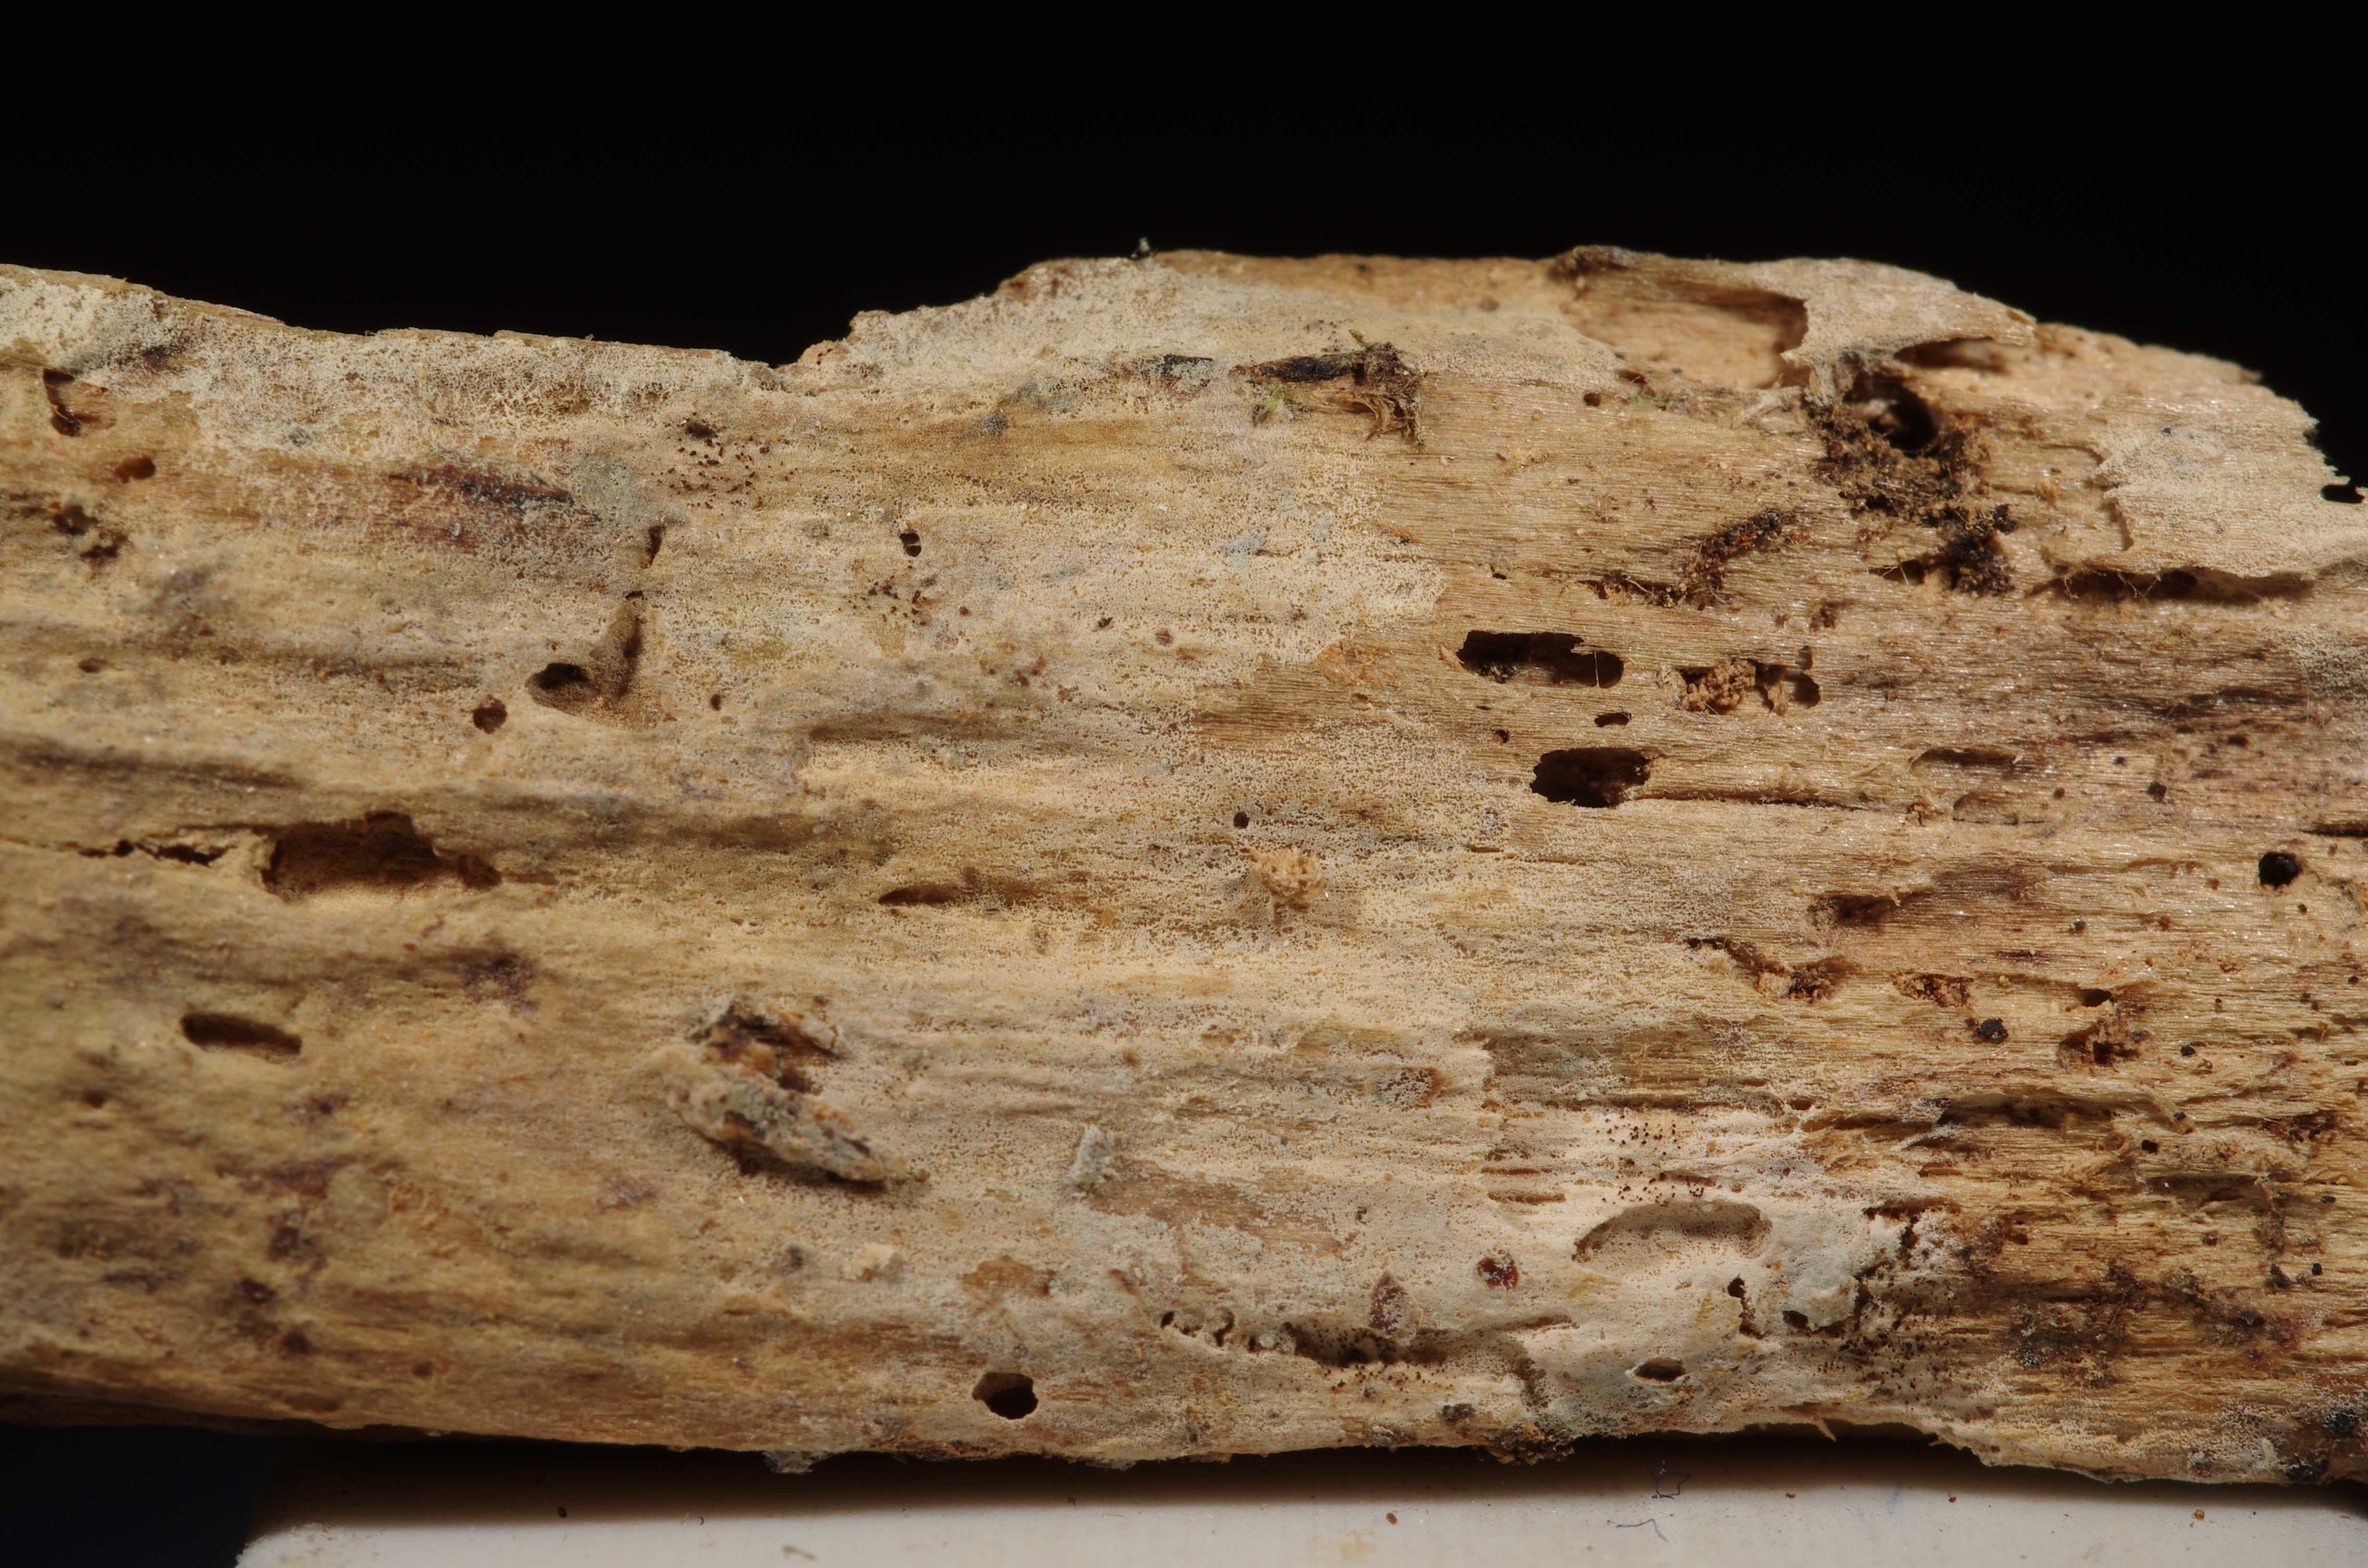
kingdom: Fungi
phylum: Basidiomycota
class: Agaricomycetes
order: Auriculariales
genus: Basidiodendron
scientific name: Basidiodendron caesiocinereum
